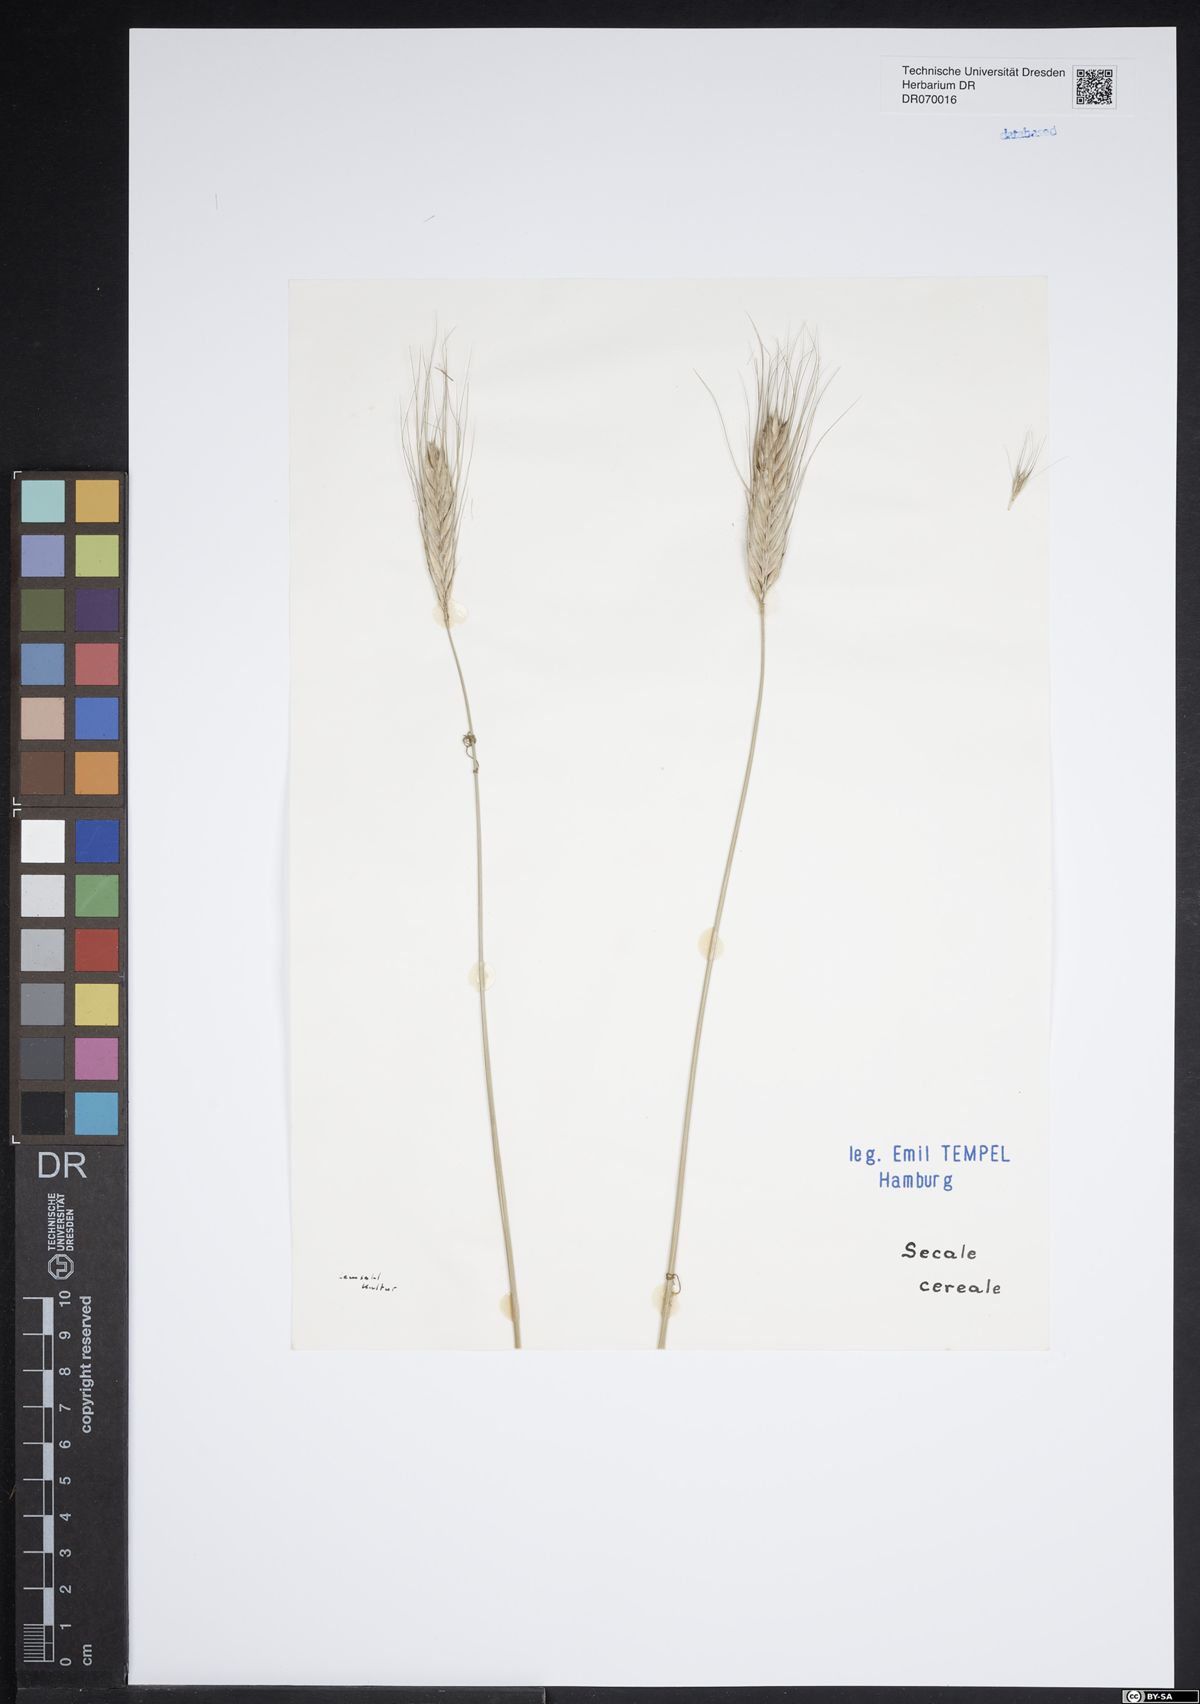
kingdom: Plantae
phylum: Tracheophyta
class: Liliopsida
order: Poales
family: Poaceae
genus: Secale
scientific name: Secale cereale
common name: Rye
